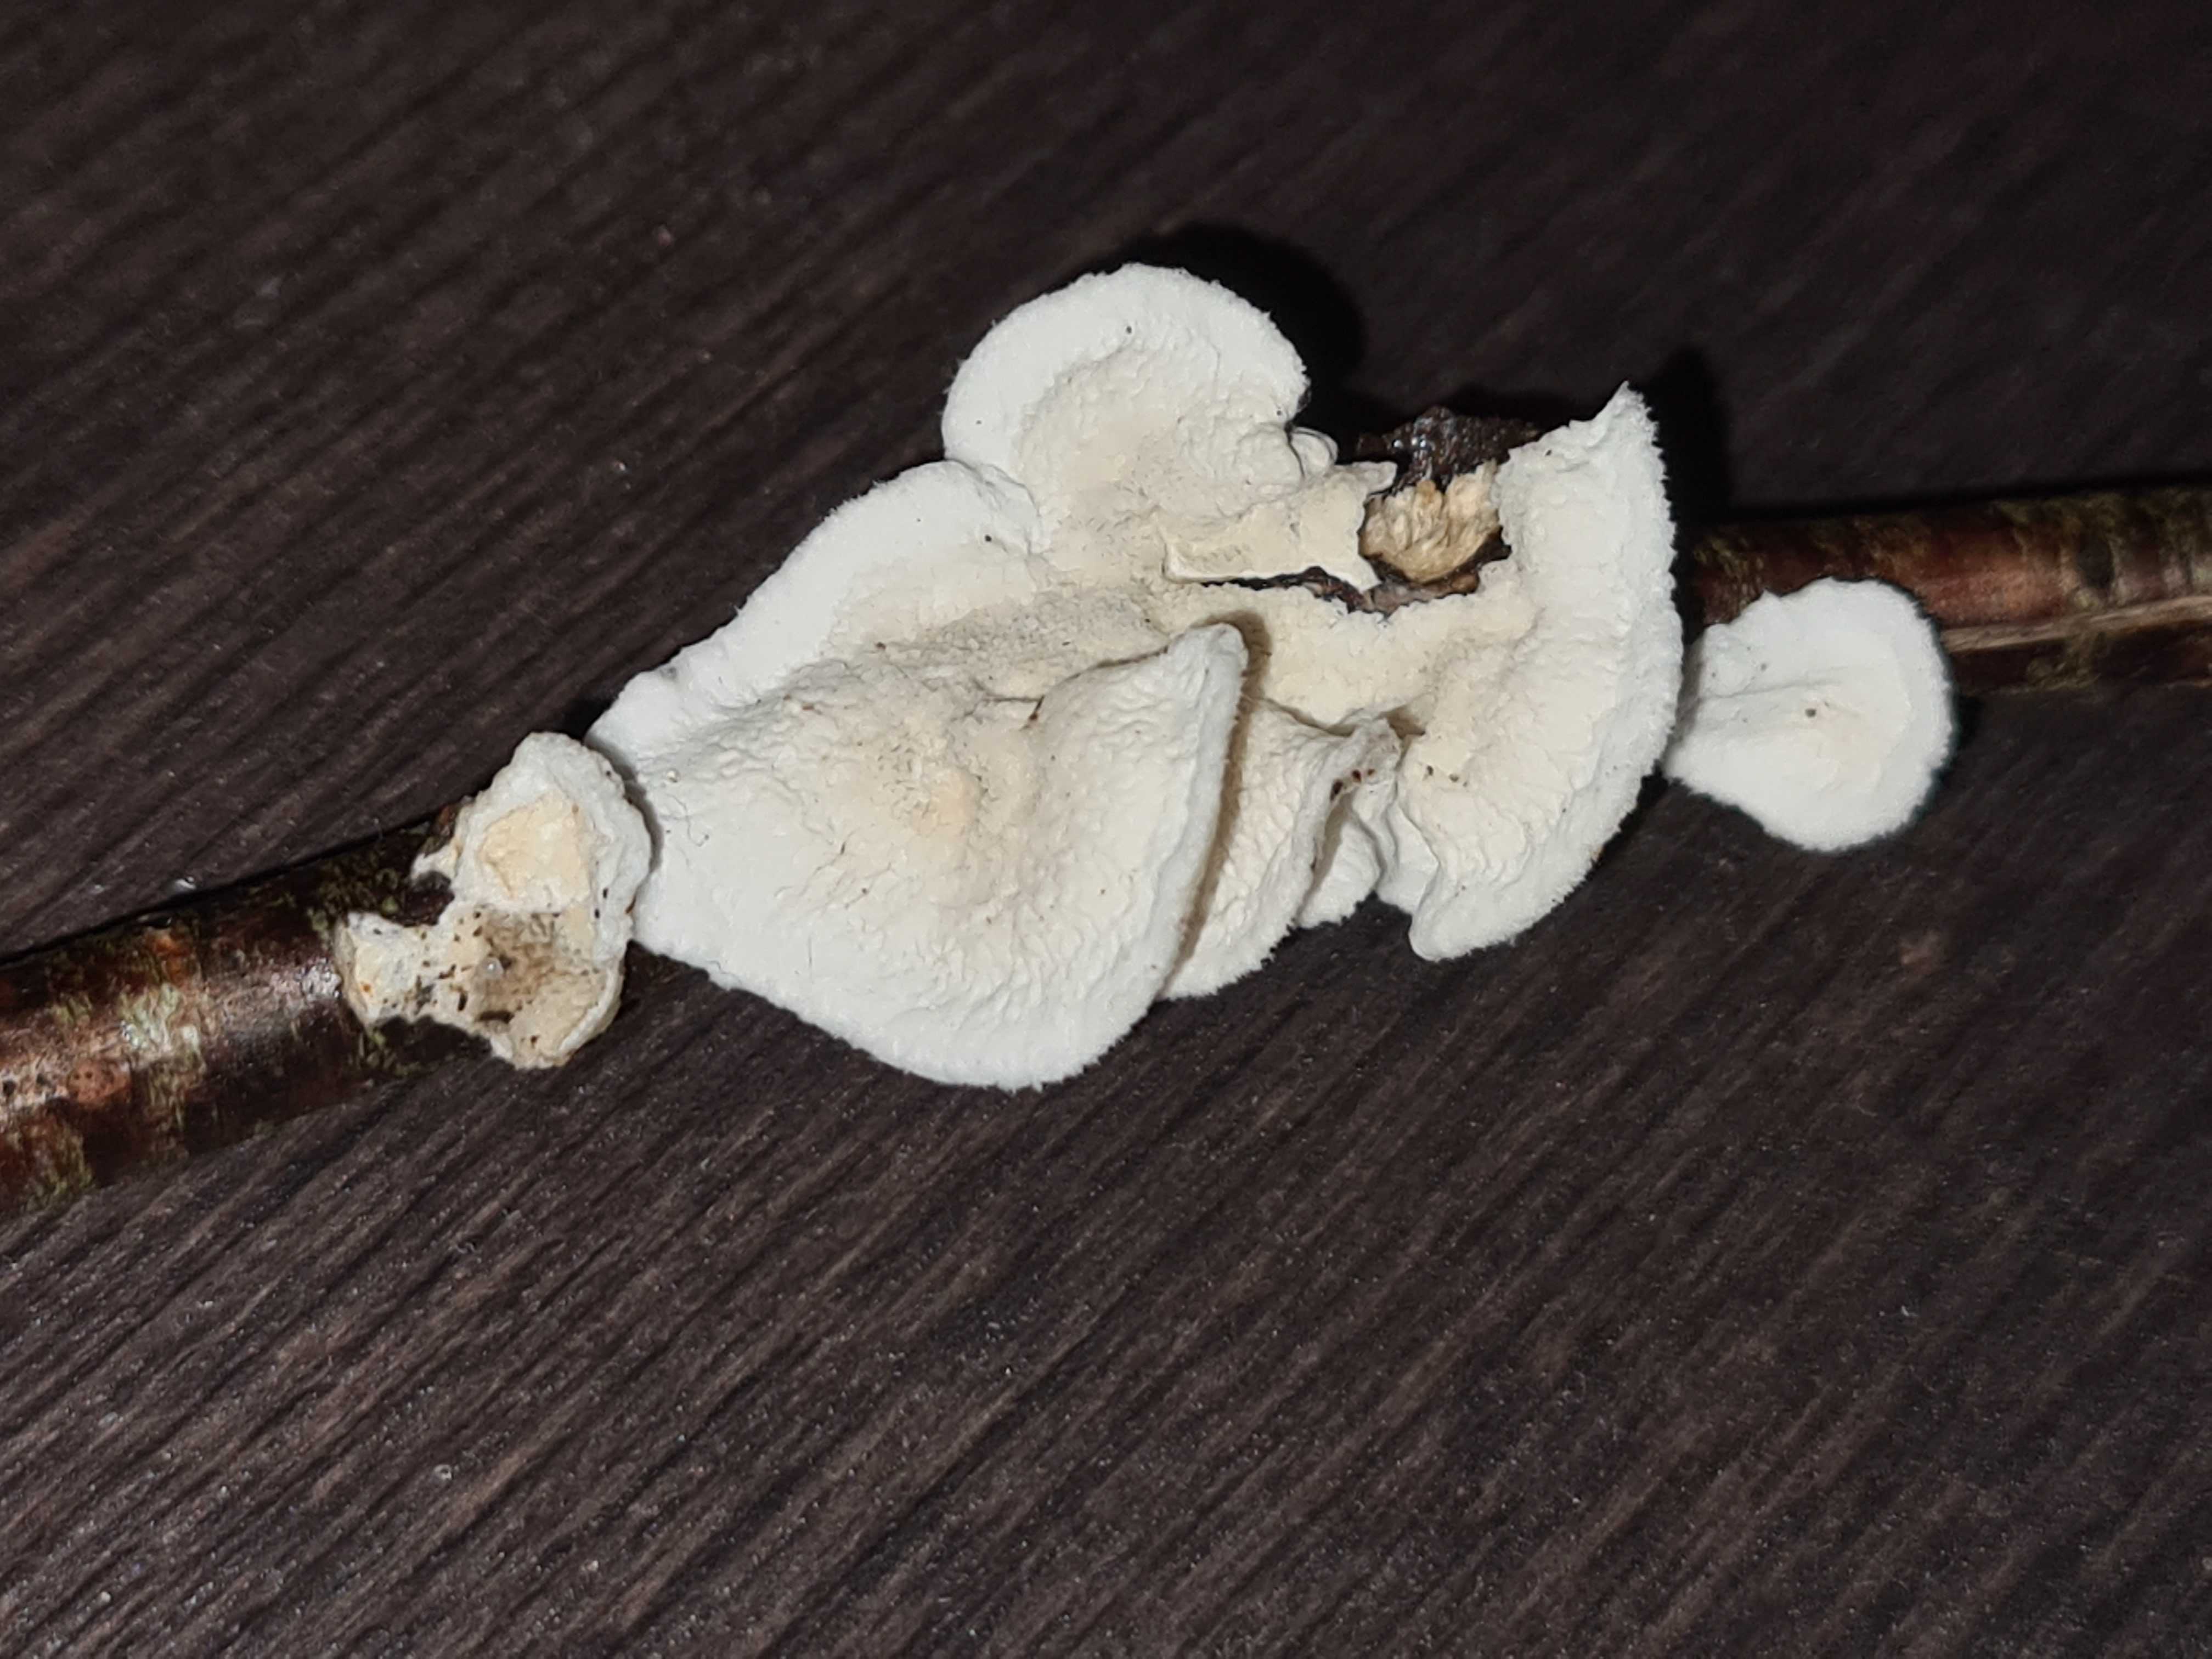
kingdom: Fungi
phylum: Basidiomycota
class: Agaricomycetes
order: Polyporales
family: Irpicaceae
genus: Byssomerulius
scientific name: Byssomerulius corium
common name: læder-åresvamp
